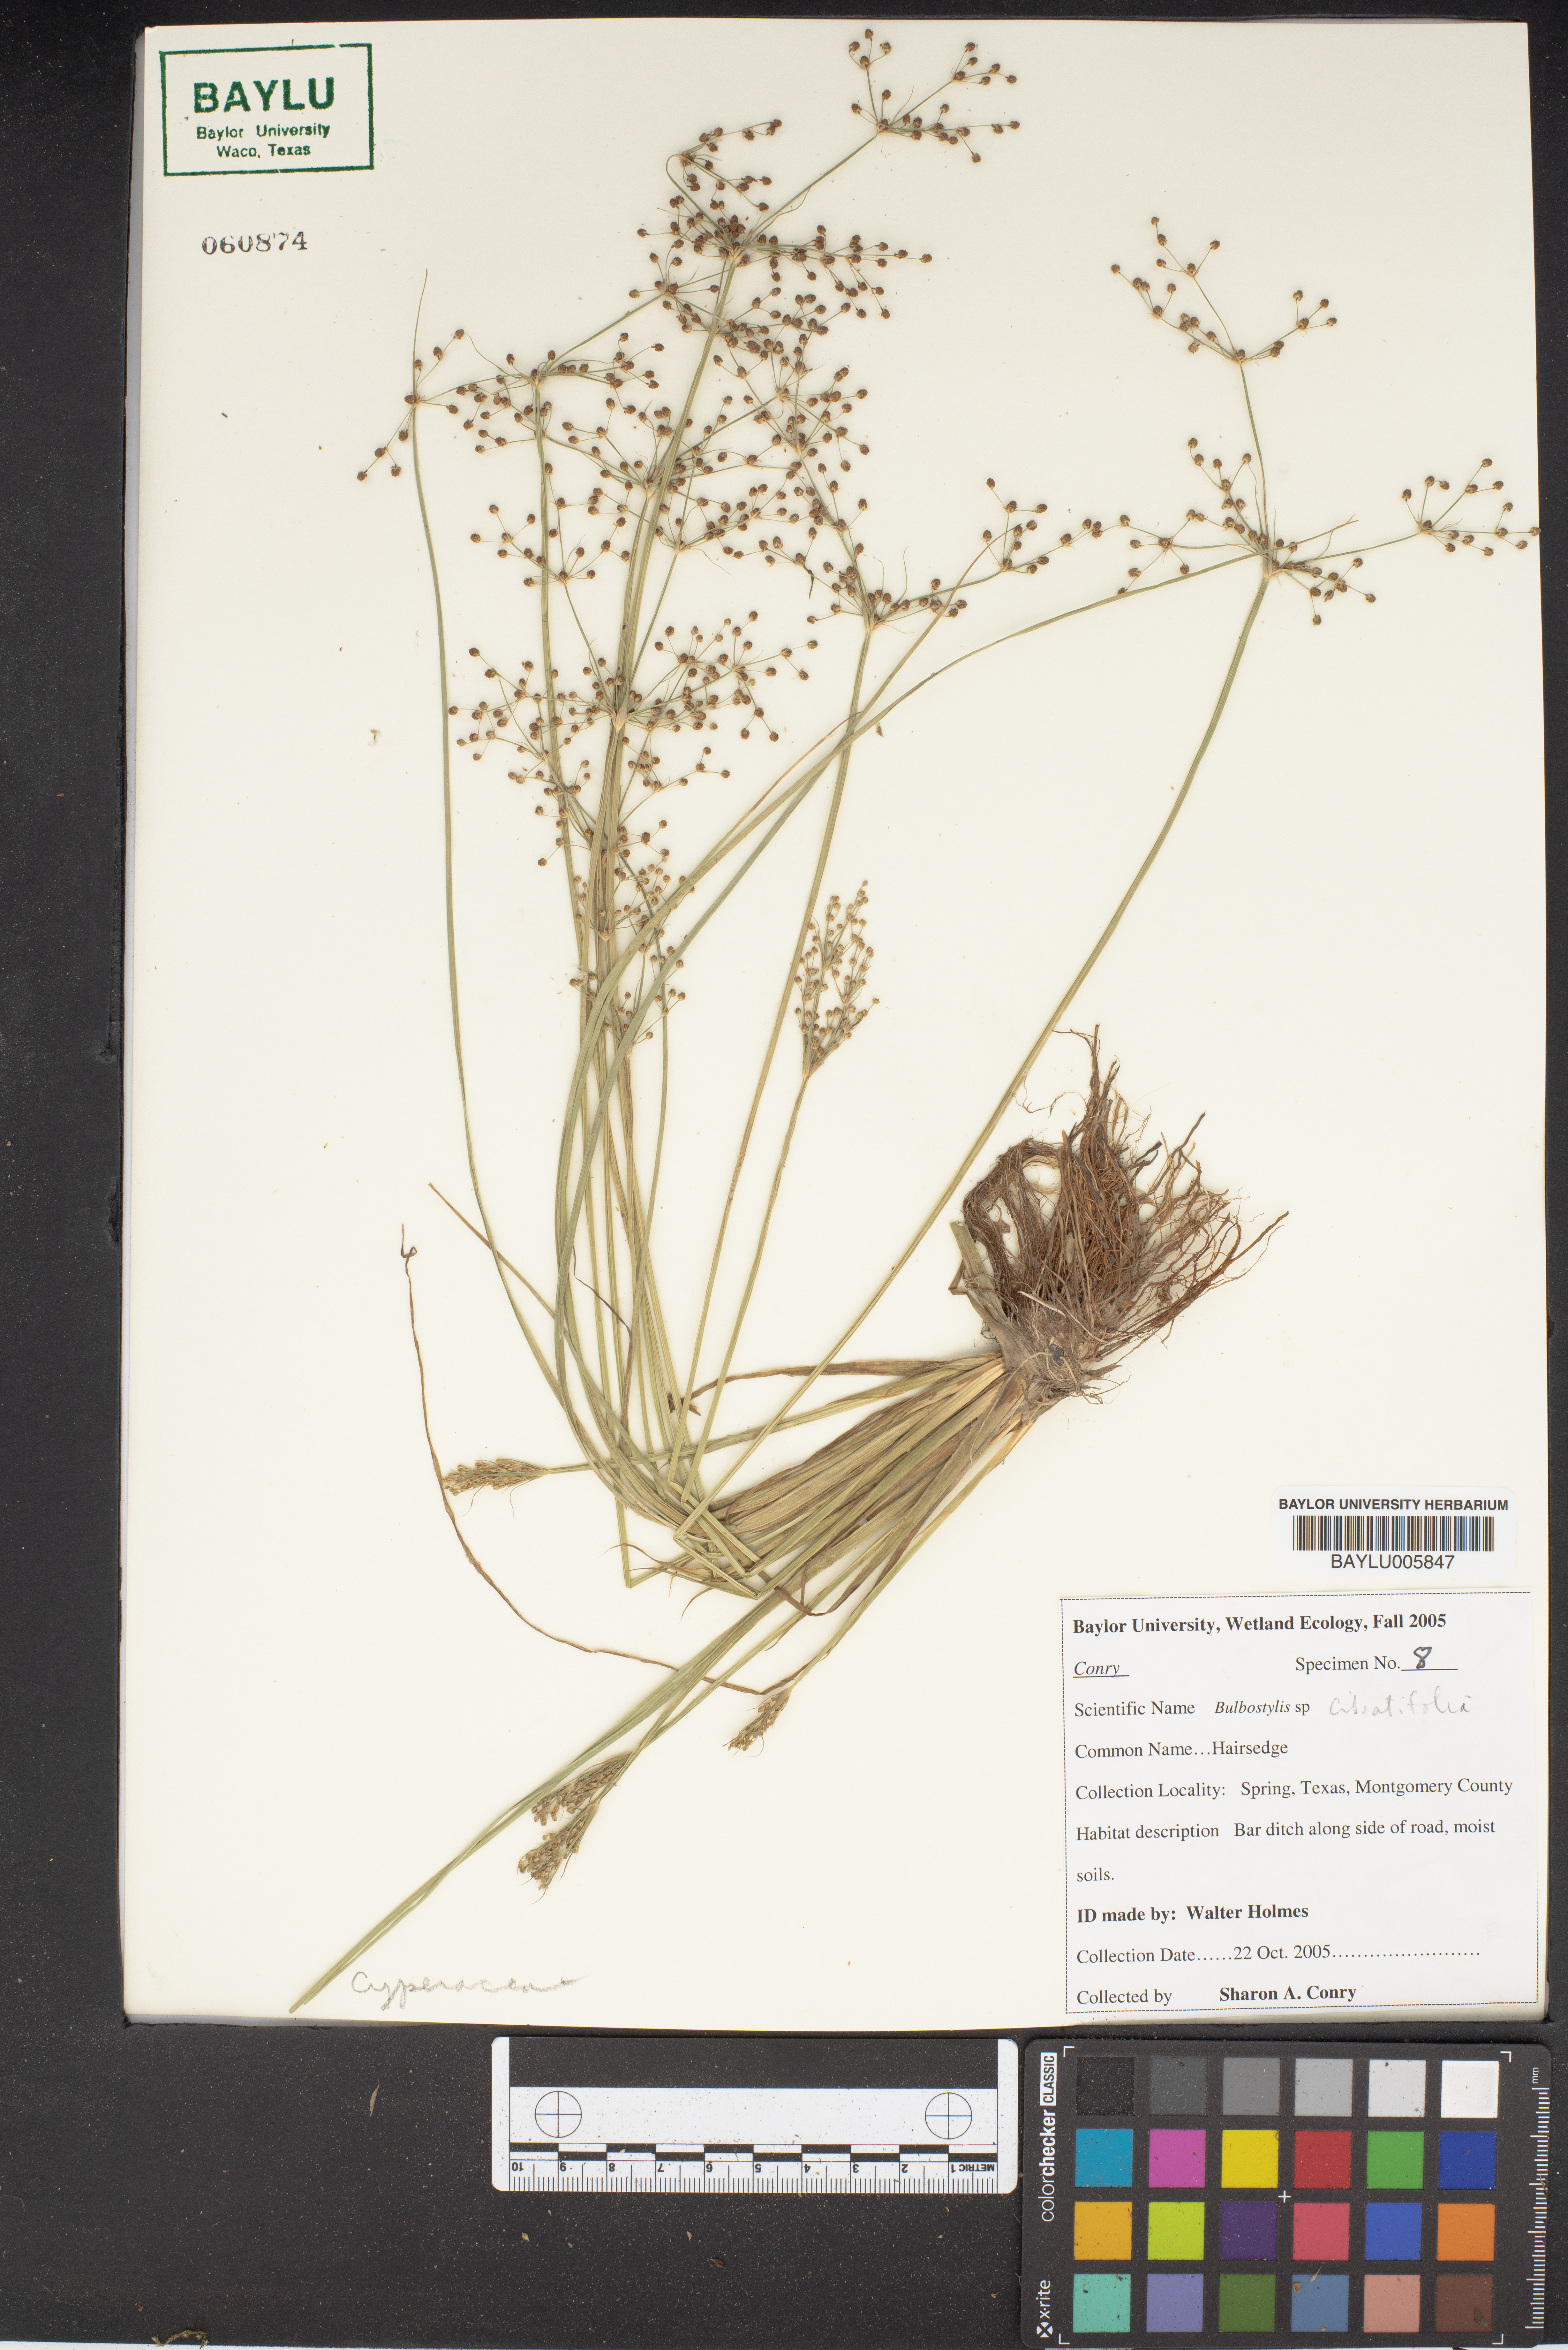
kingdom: Plantae
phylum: Tracheophyta
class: Liliopsida
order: Poales
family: Cyperaceae
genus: Bulbostylis
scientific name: Bulbostylis ciliatifolia
